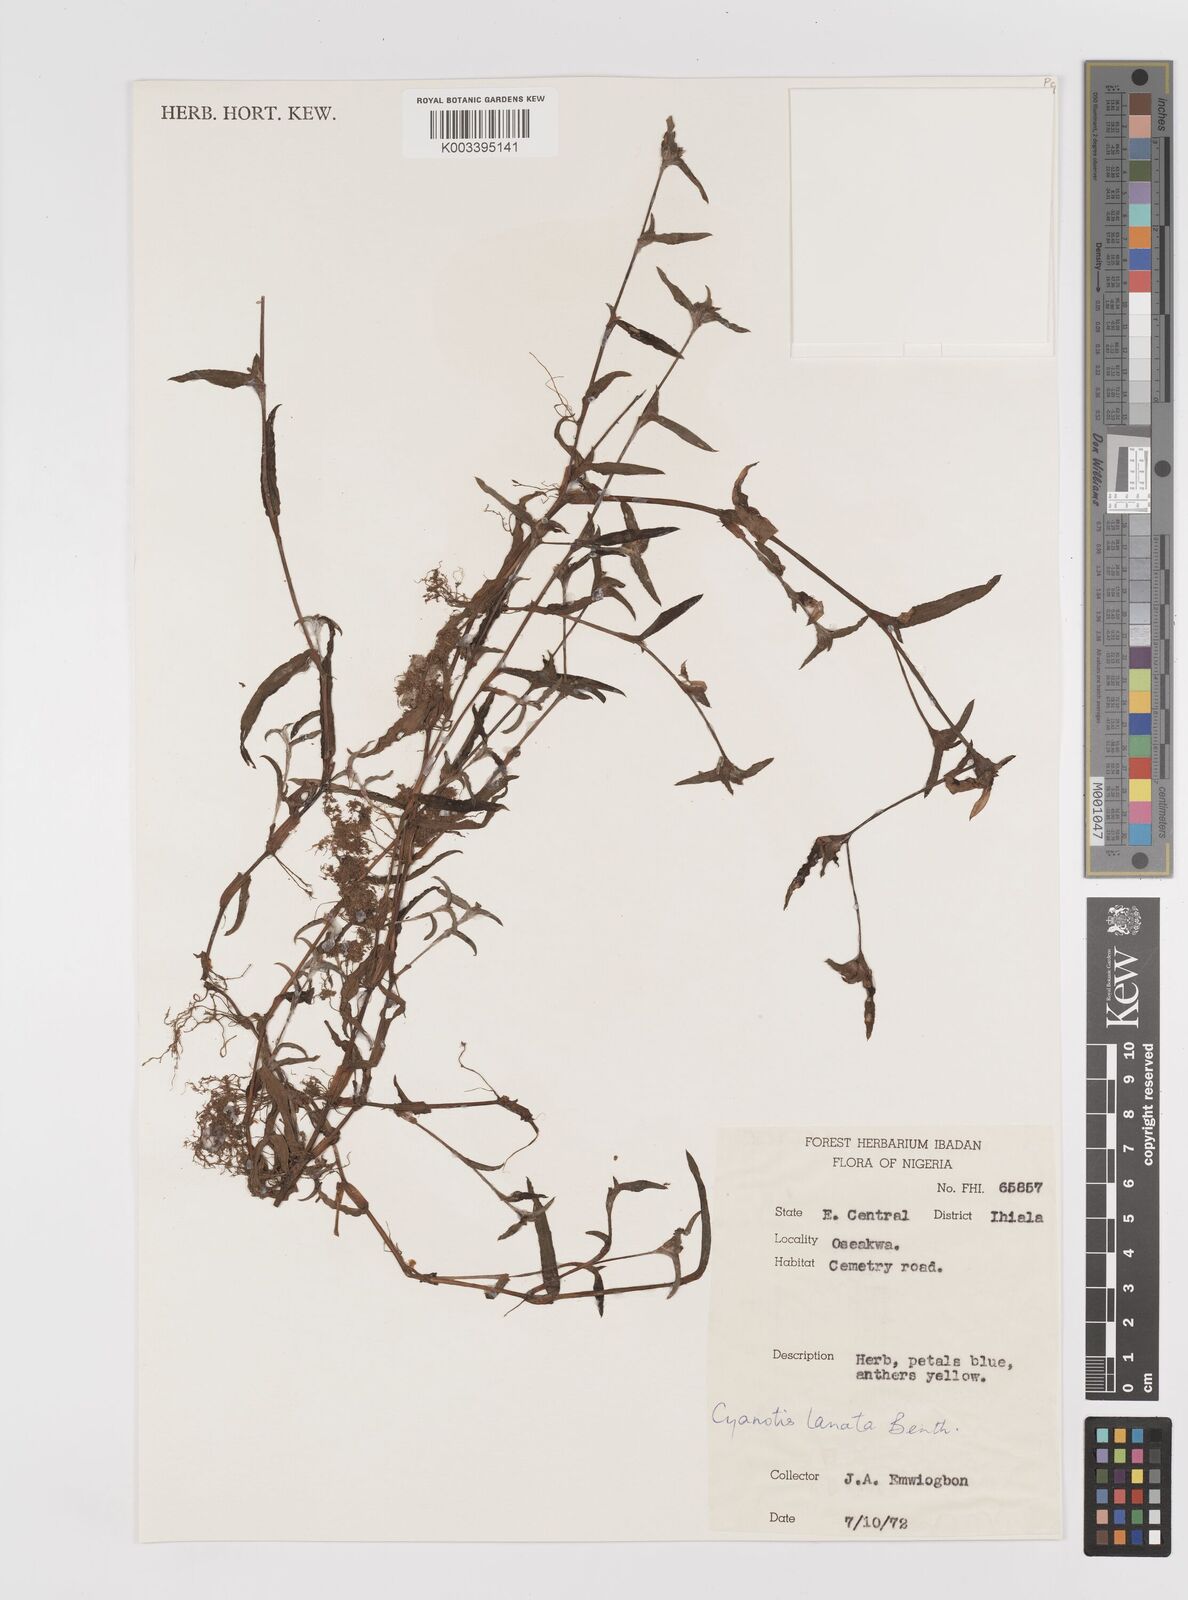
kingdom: Plantae
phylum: Tracheophyta
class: Liliopsida
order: Commelinales
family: Commelinaceae
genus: Cyanotis
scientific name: Cyanotis lanata
